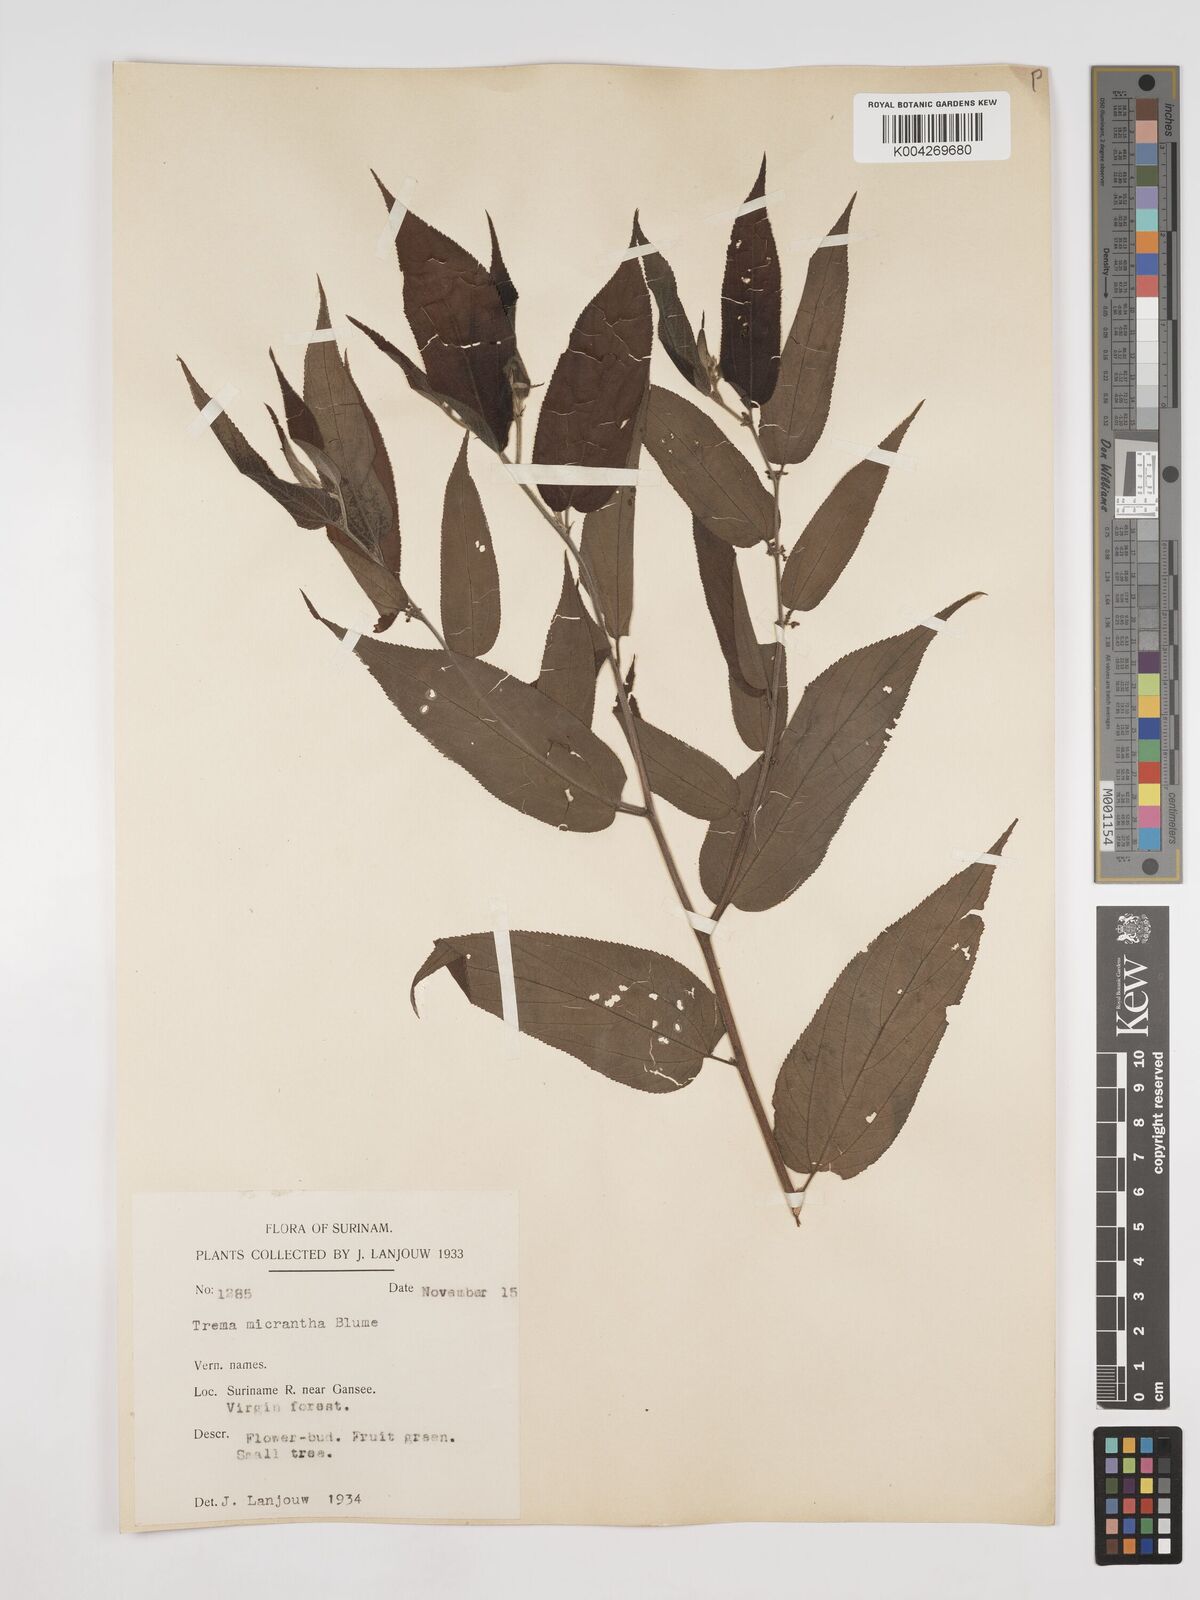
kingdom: Plantae
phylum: Tracheophyta
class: Magnoliopsida
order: Rosales
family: Cannabaceae
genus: Trema
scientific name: Trema micranthum
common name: Jamaican nettletree
